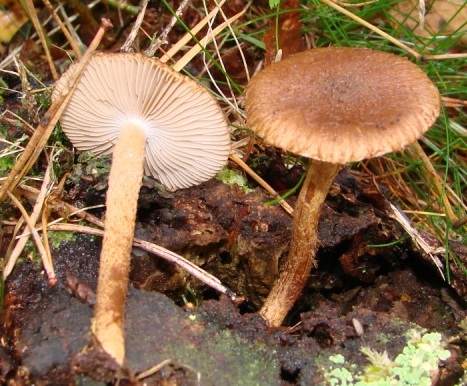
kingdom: Fungi
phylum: Basidiomycota
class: Agaricomycetes
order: Agaricales
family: Inocybaceae
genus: Inocybe
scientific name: Inocybe stellatospora
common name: spidsskællet trævlhat
